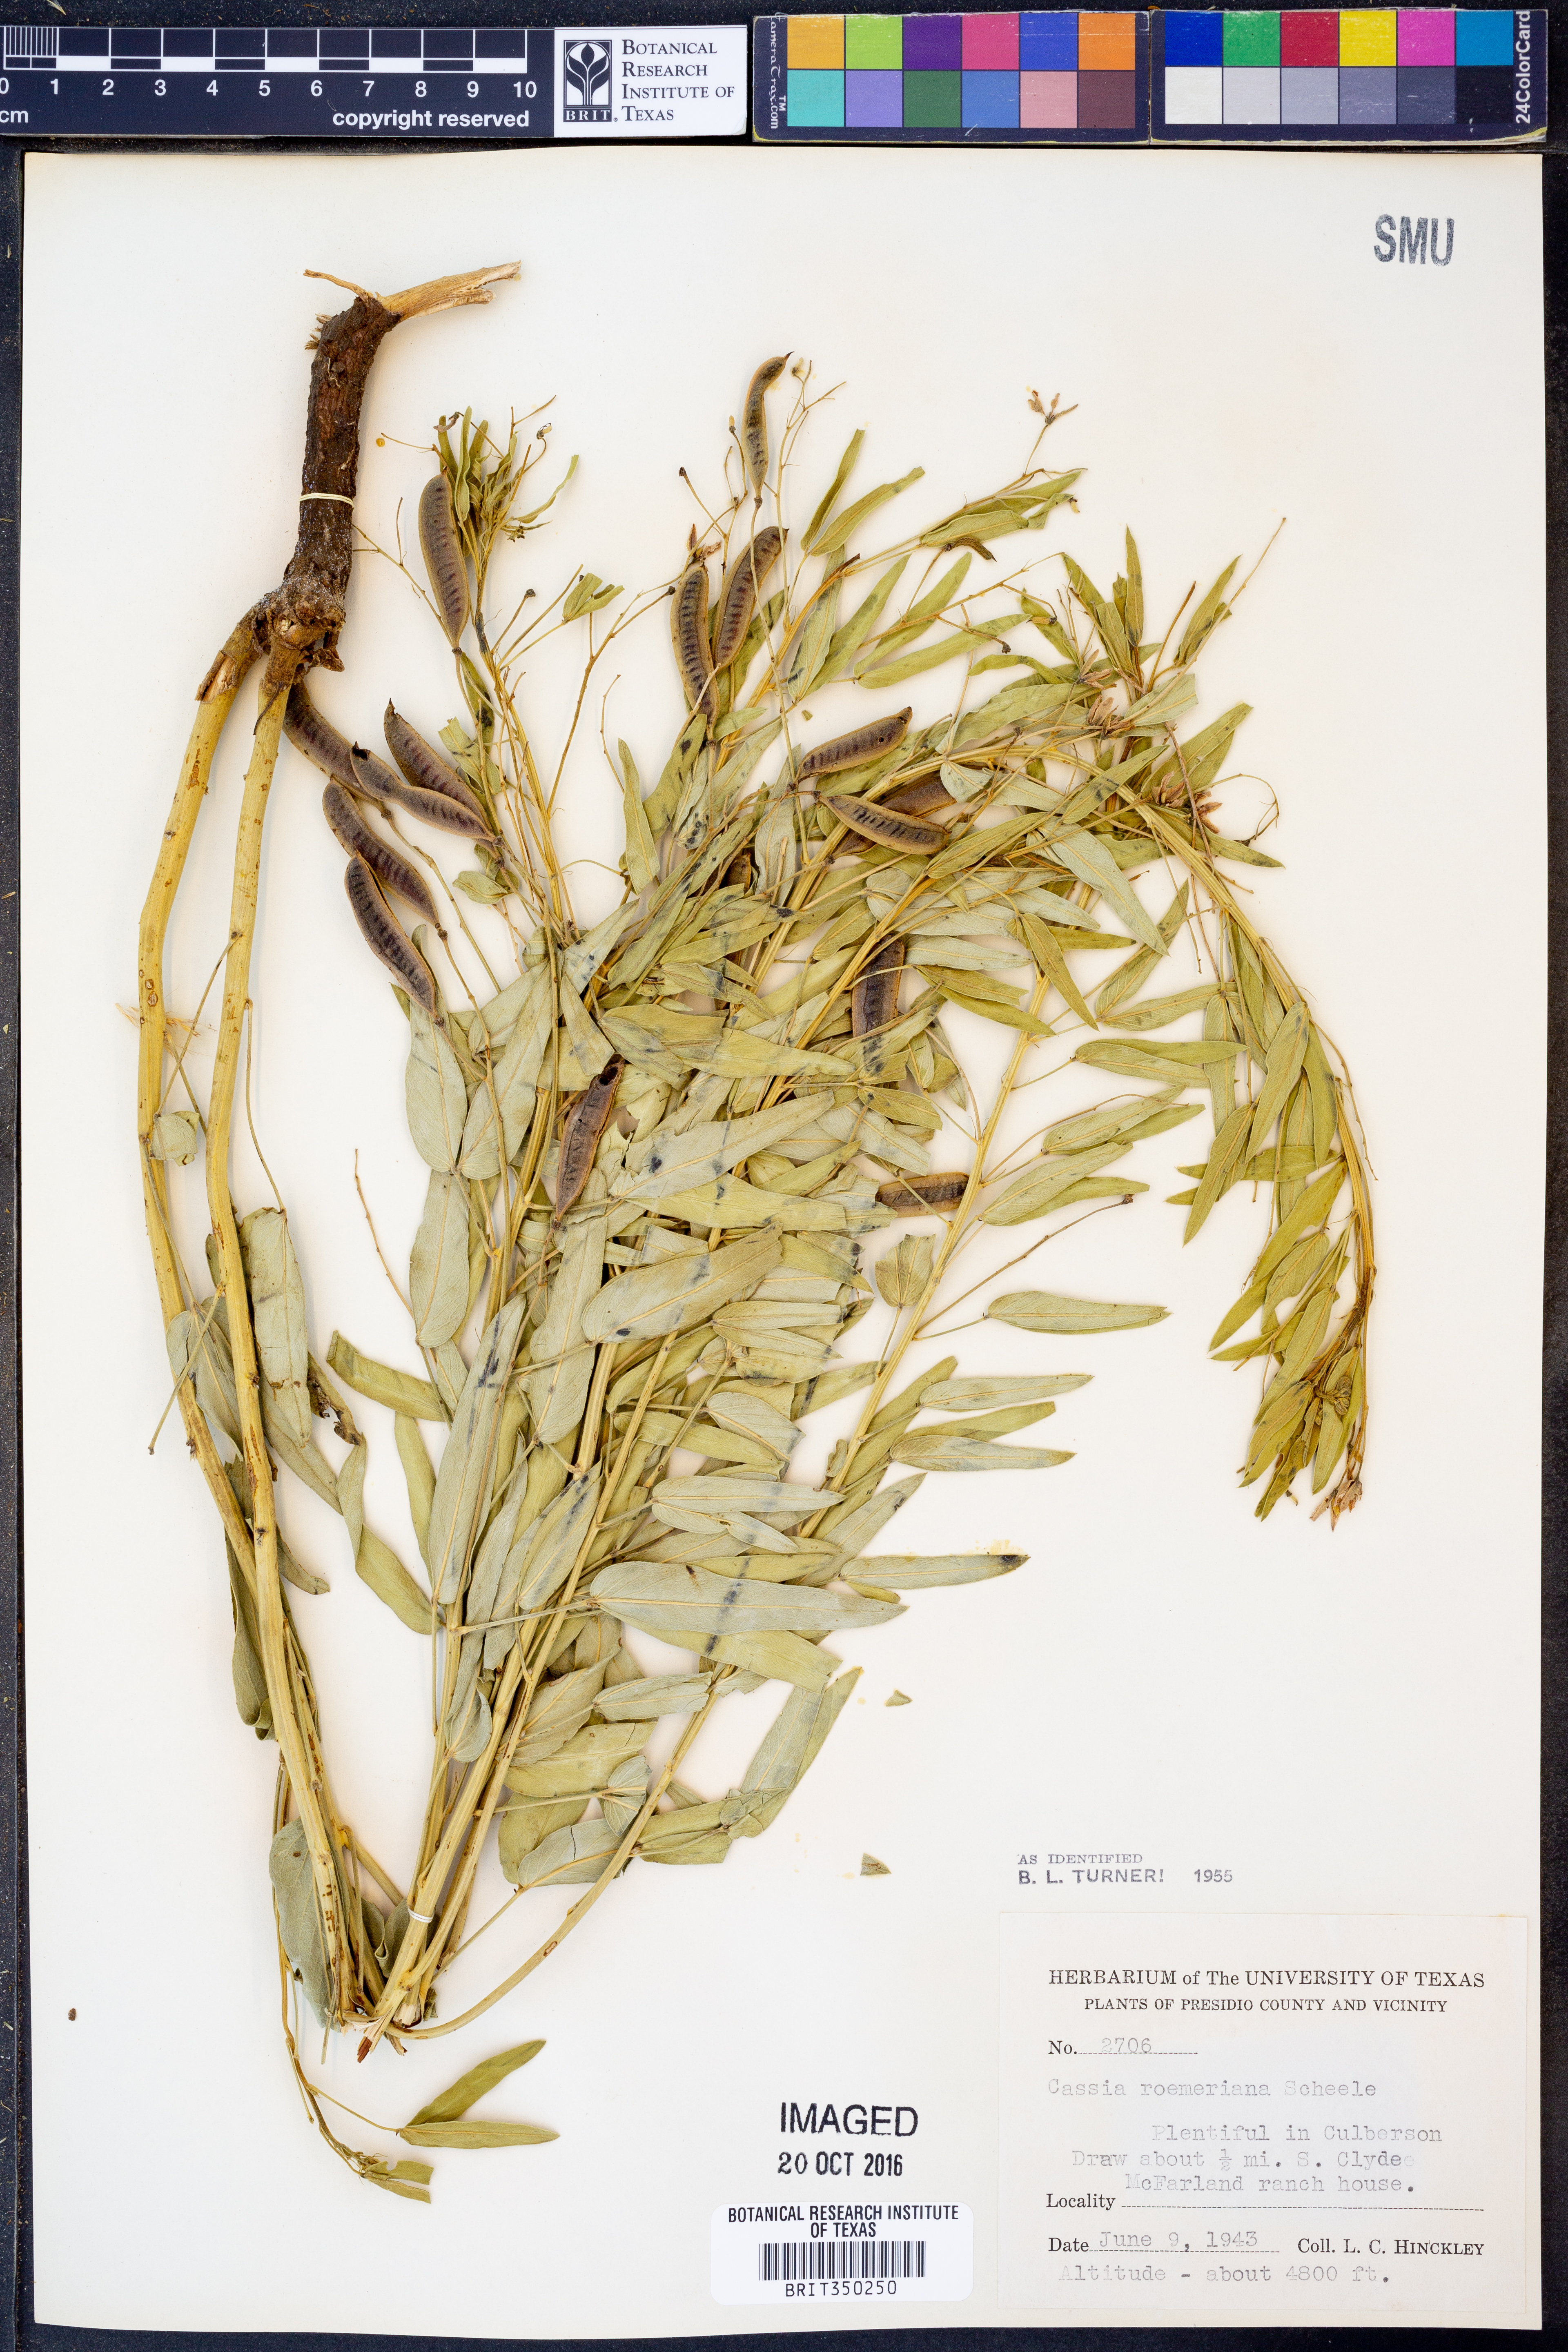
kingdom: Plantae
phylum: Tracheophyta
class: Magnoliopsida
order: Fabales
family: Fabaceae
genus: Senna
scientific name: Senna roemeriana
